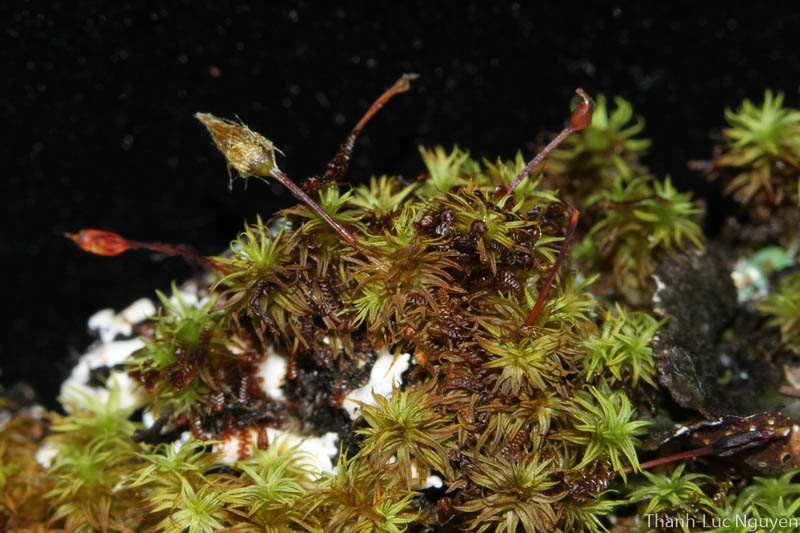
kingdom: Plantae
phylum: Bryophyta
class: Bryopsida
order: Orthotrichales
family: Orthotrichaceae
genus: Macromitrium
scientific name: Macromitrium
